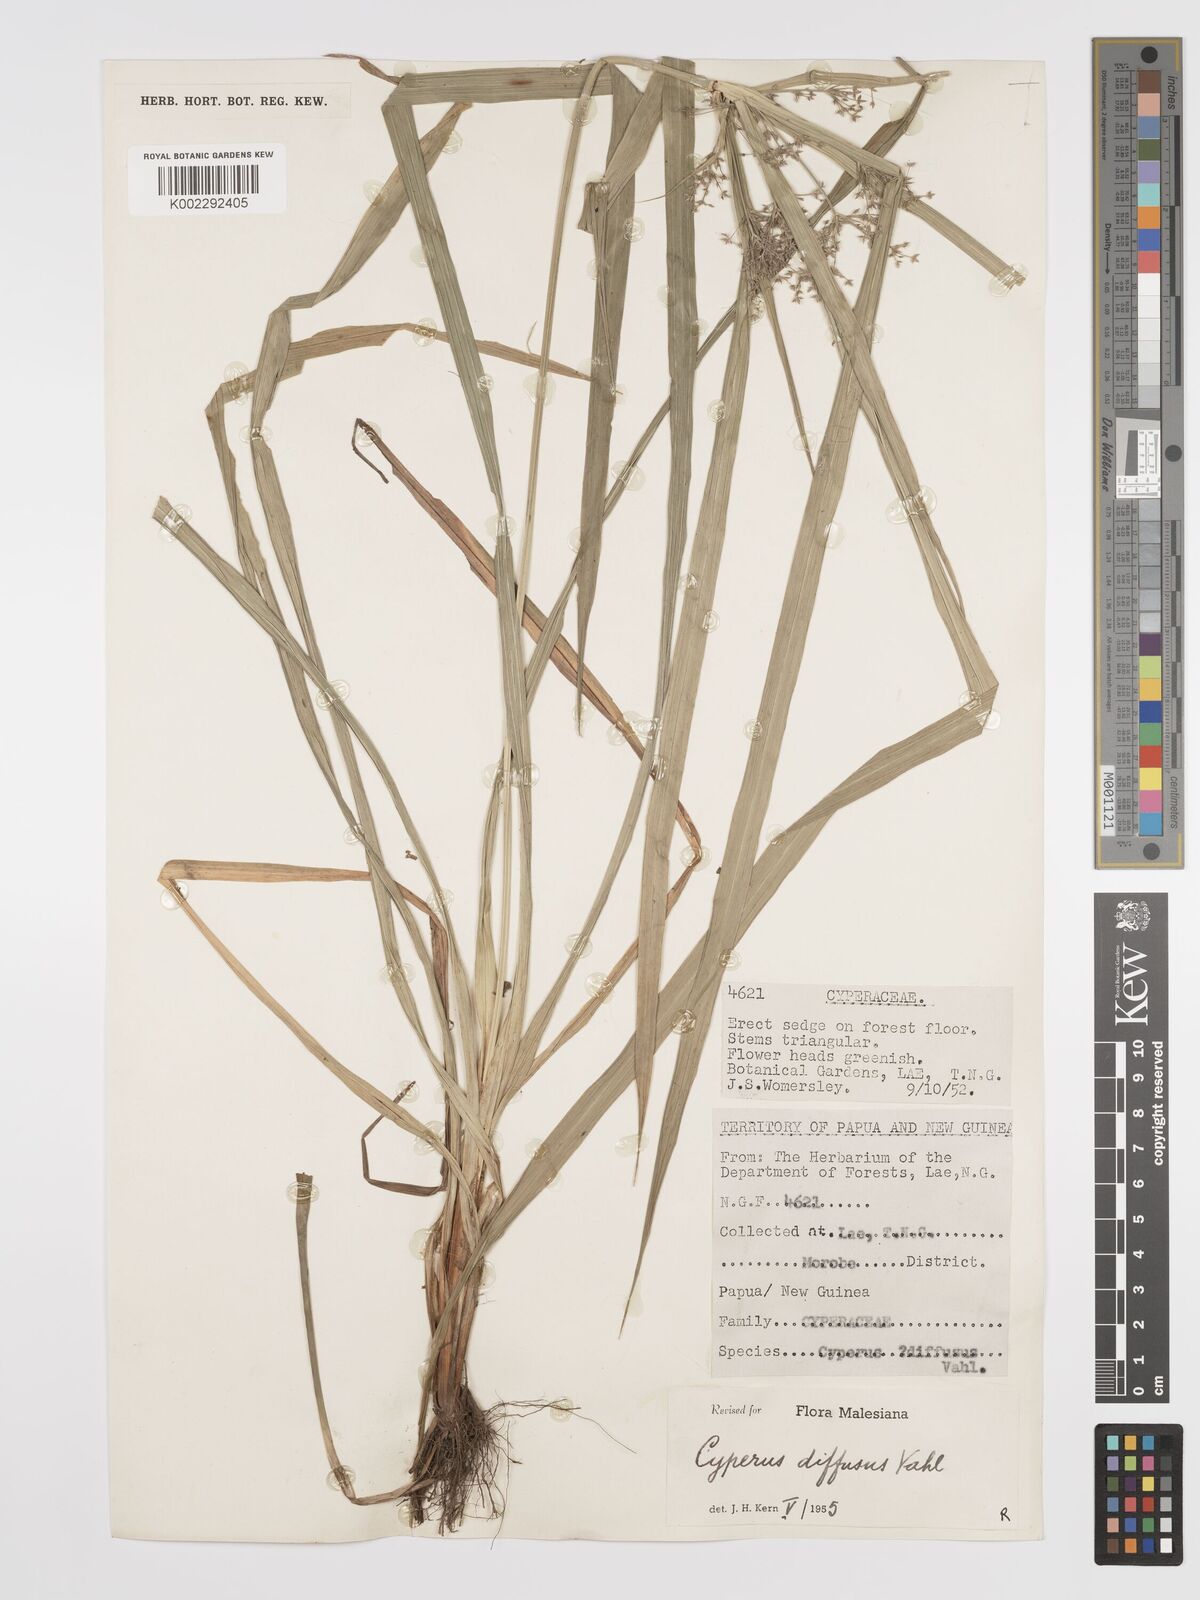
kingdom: Plantae
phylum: Tracheophyta
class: Liliopsida
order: Poales
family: Cyperaceae
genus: Cyperus
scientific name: Cyperus diffusus
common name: Dwarf umbrella grass
